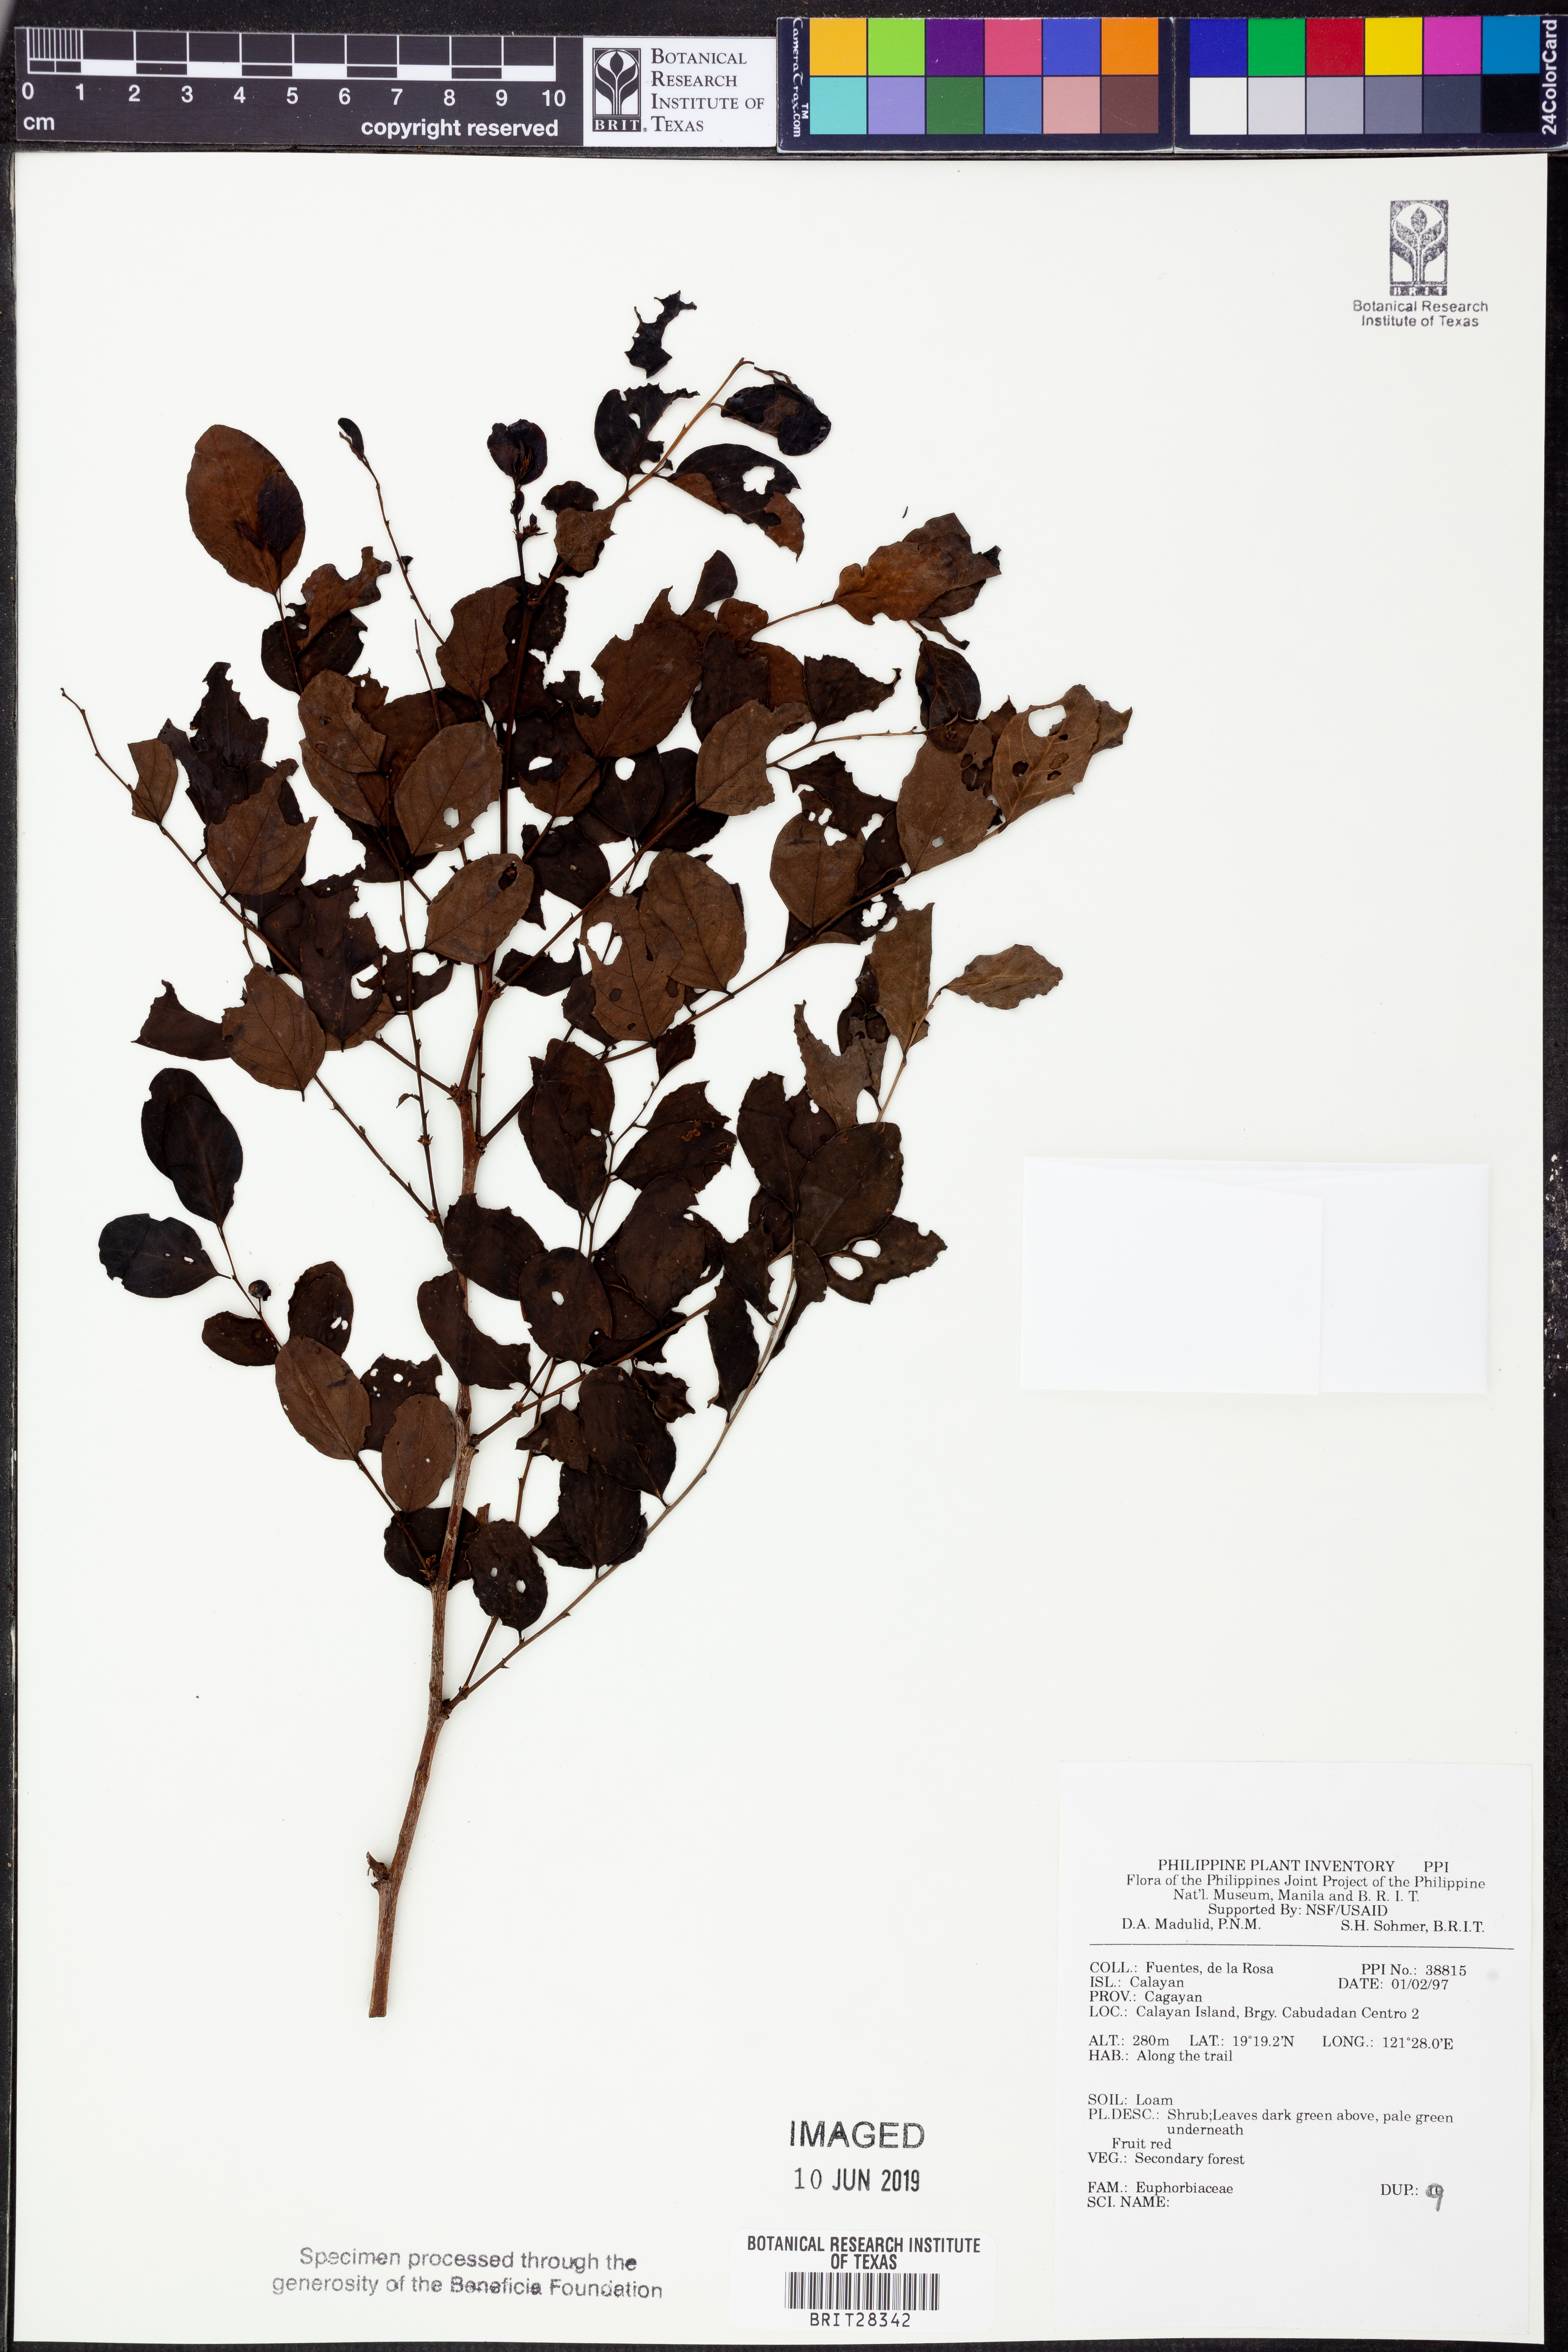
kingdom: Plantae
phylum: Tracheophyta
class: Magnoliopsida
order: Malpighiales
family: Euphorbiaceae
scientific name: Euphorbiaceae
